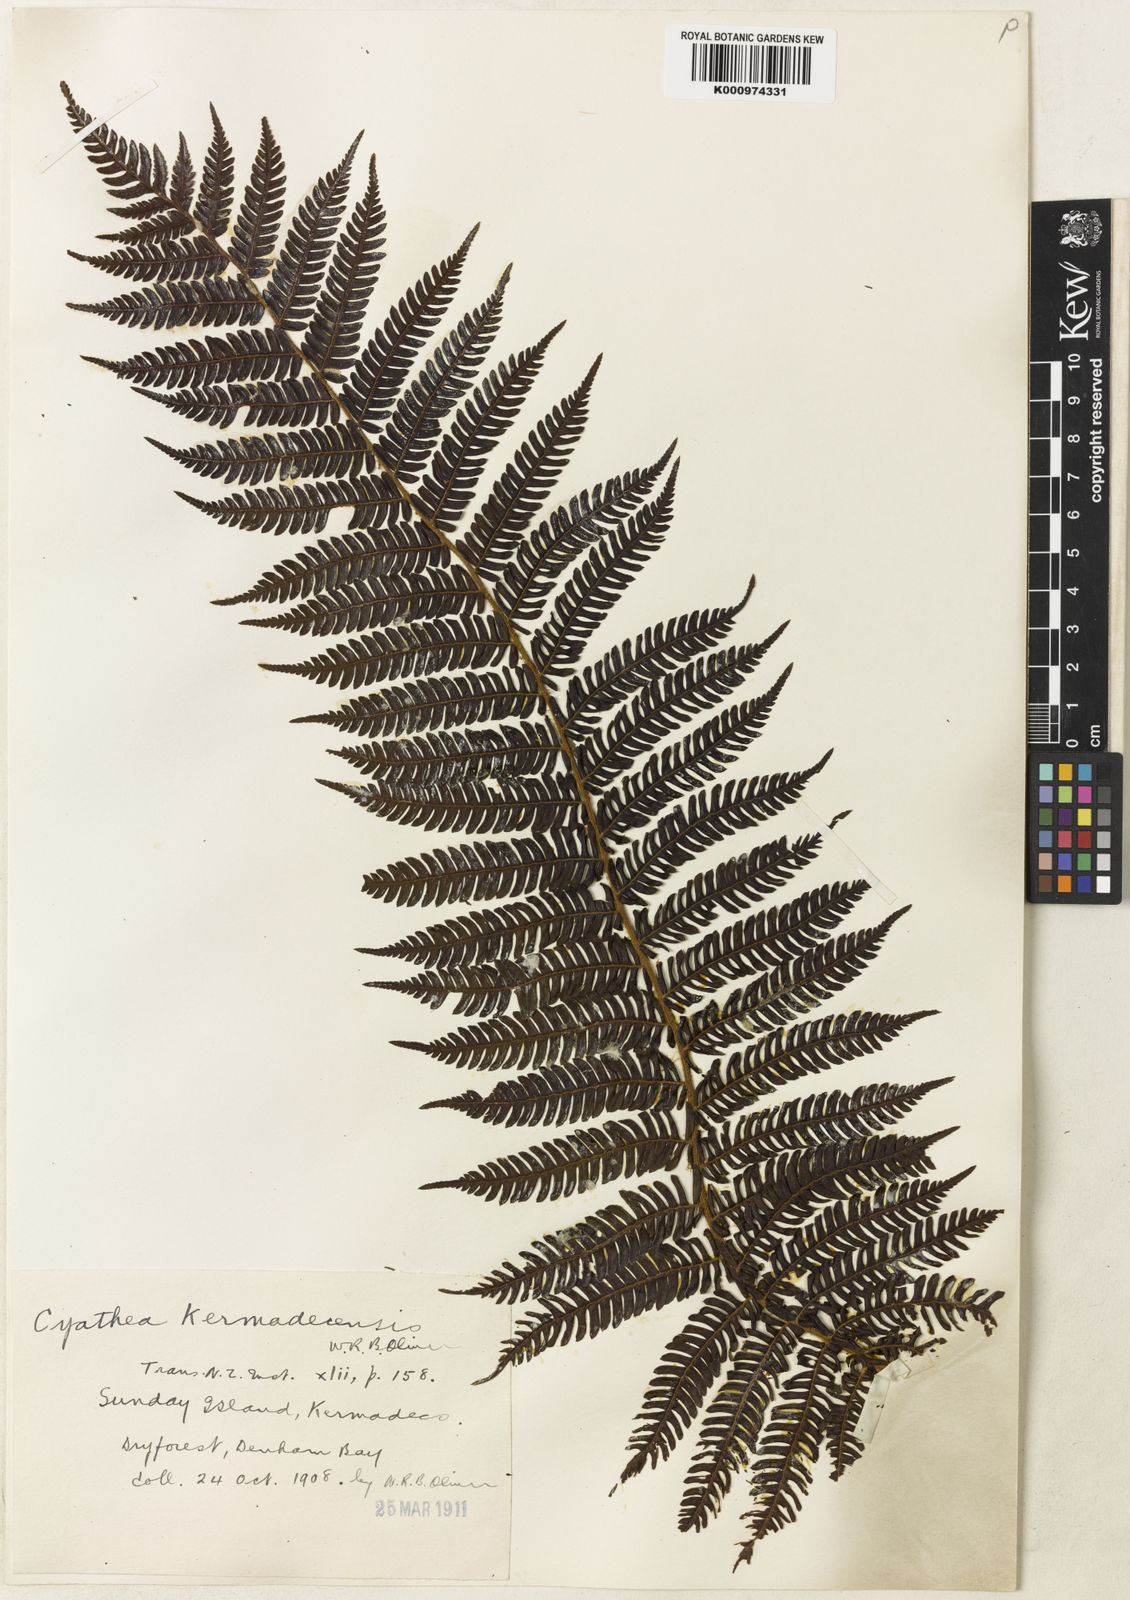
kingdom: Plantae
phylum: Tracheophyta
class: Polypodiopsida
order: Cyatheales
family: Cyatheaceae
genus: Alsophila
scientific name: Alsophila kermadecensis
